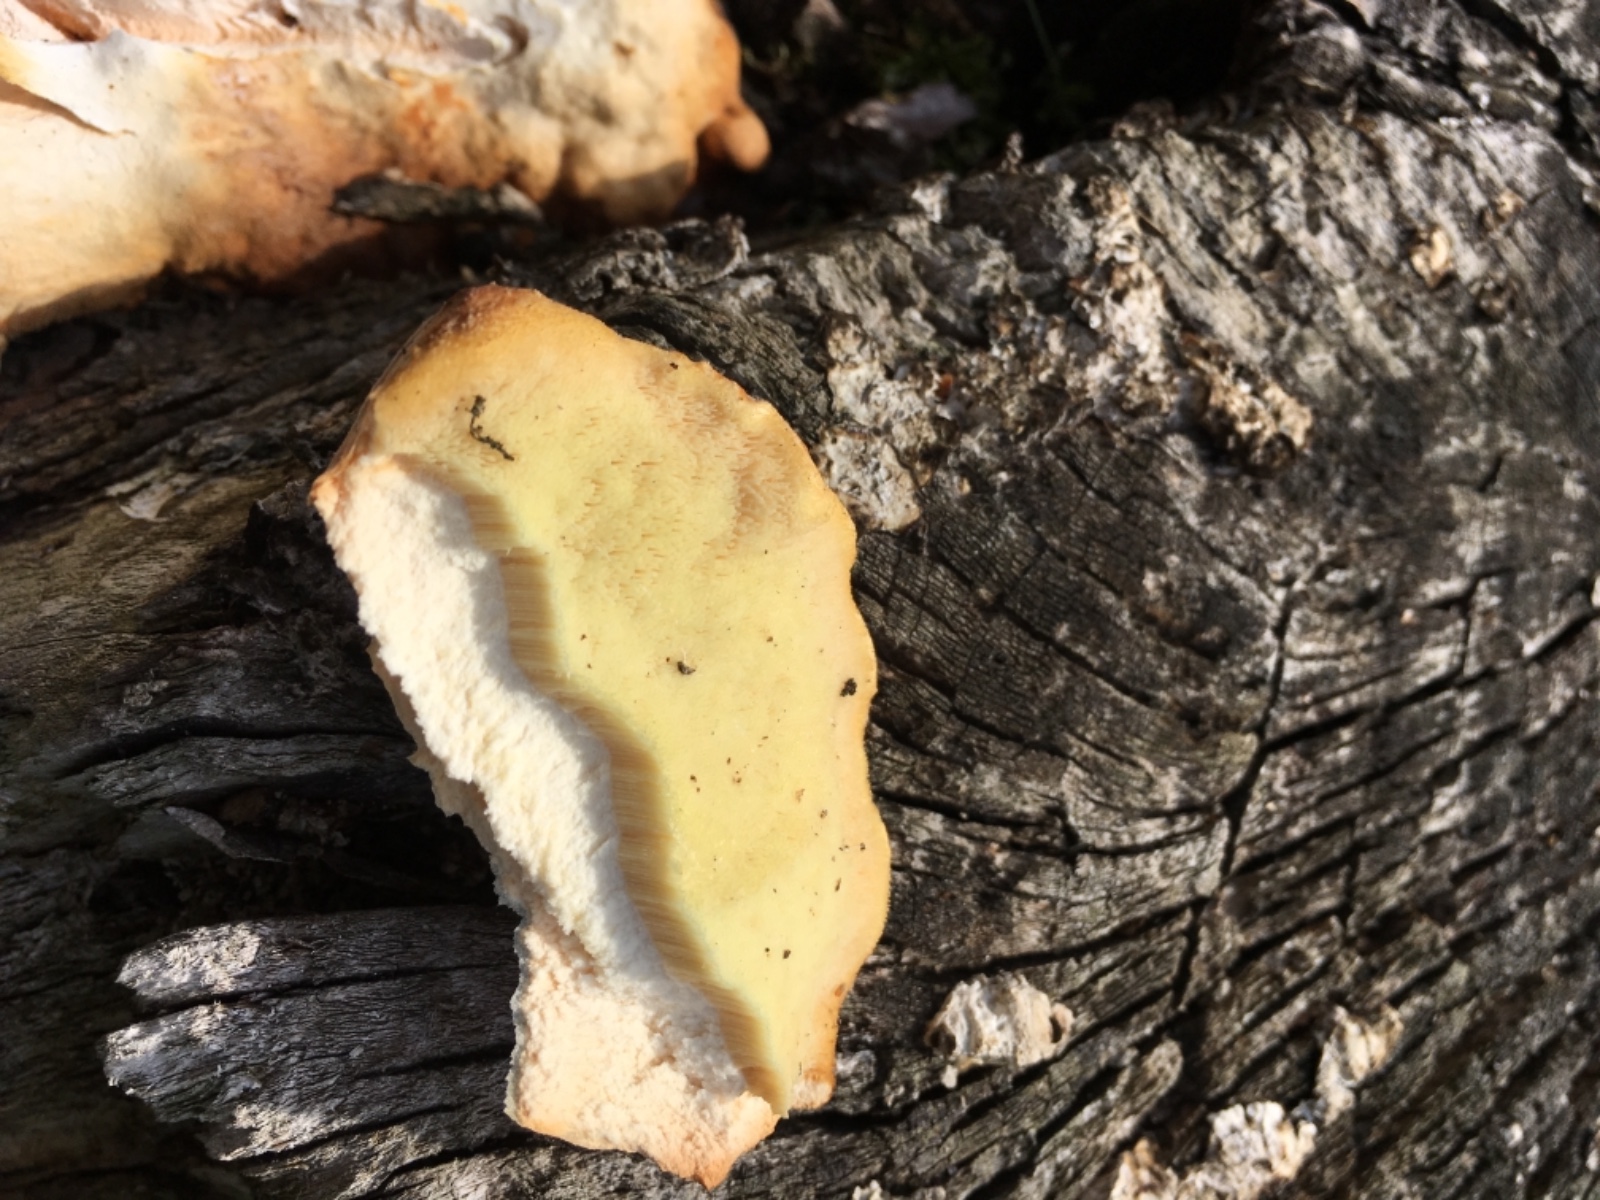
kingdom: Fungi
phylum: Basidiomycota
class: Agaricomycetes
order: Polyporales
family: Laetiporaceae
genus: Laetiporus
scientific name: Laetiporus sulphureus
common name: svovlporesvamp
